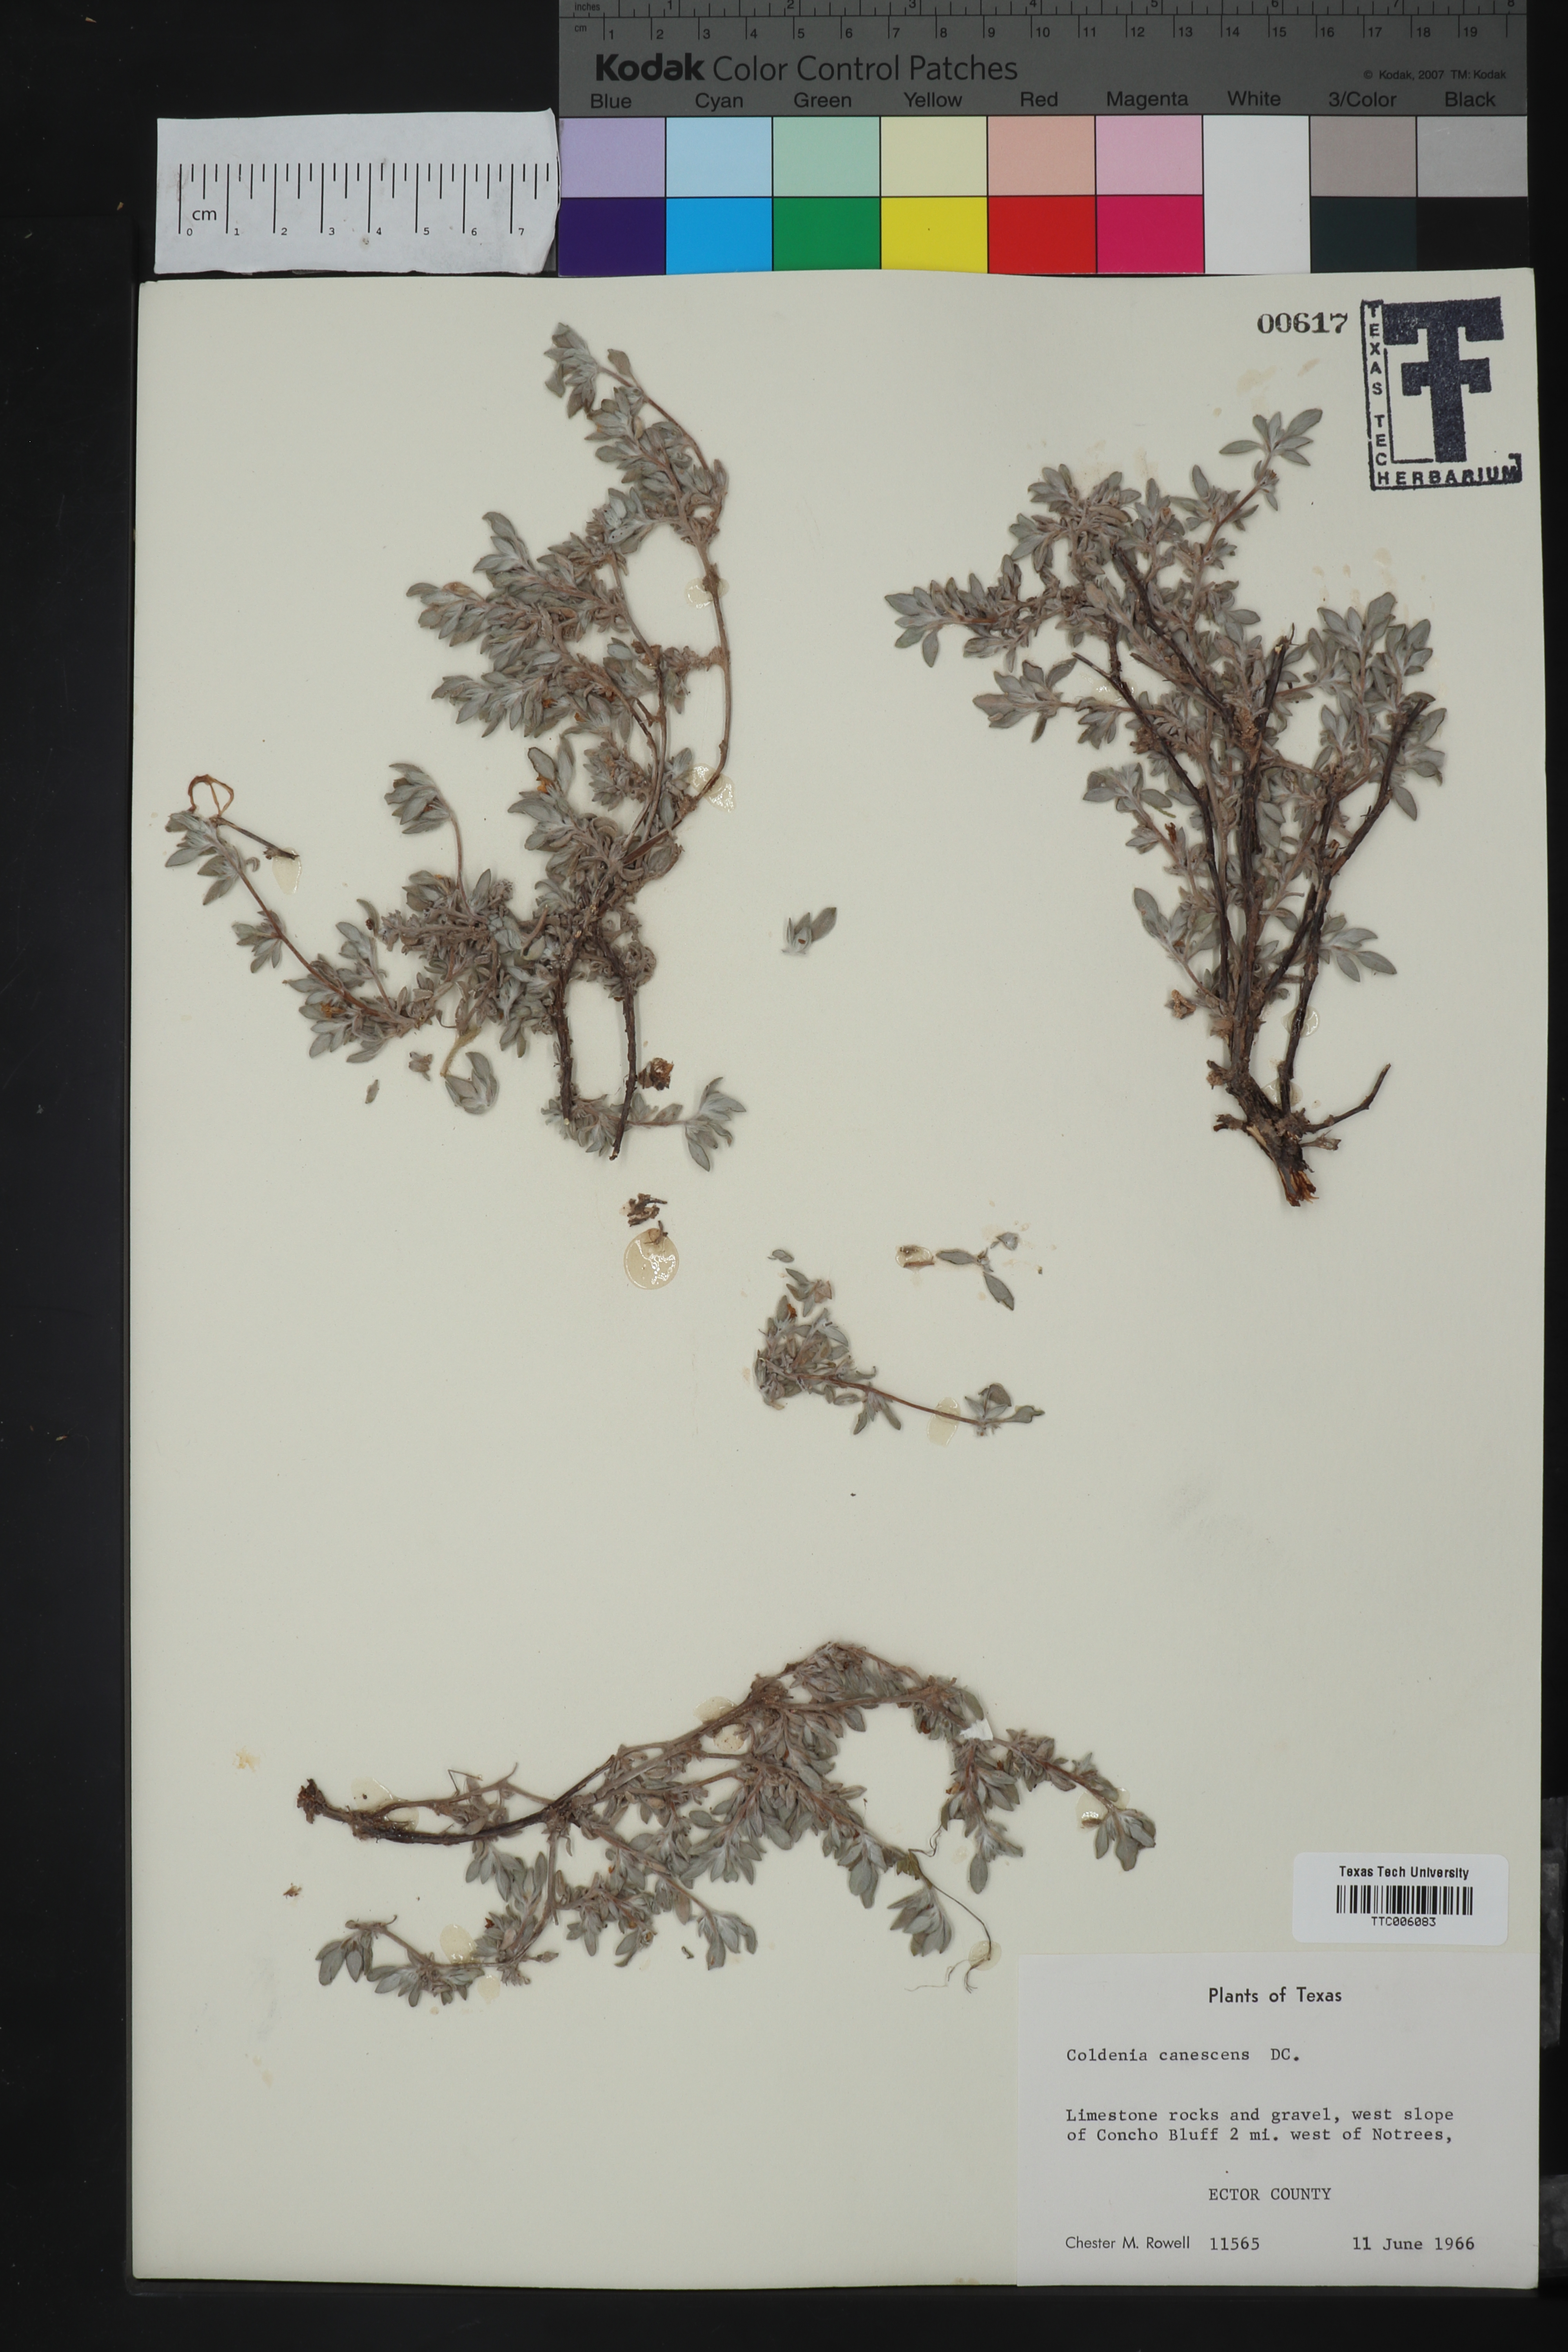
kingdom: Plantae
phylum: Tracheophyta
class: Magnoliopsida
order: Boraginales
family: Ehretiaceae
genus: Tiquilia
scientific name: Tiquilia canescens
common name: Hairy tiquilia
